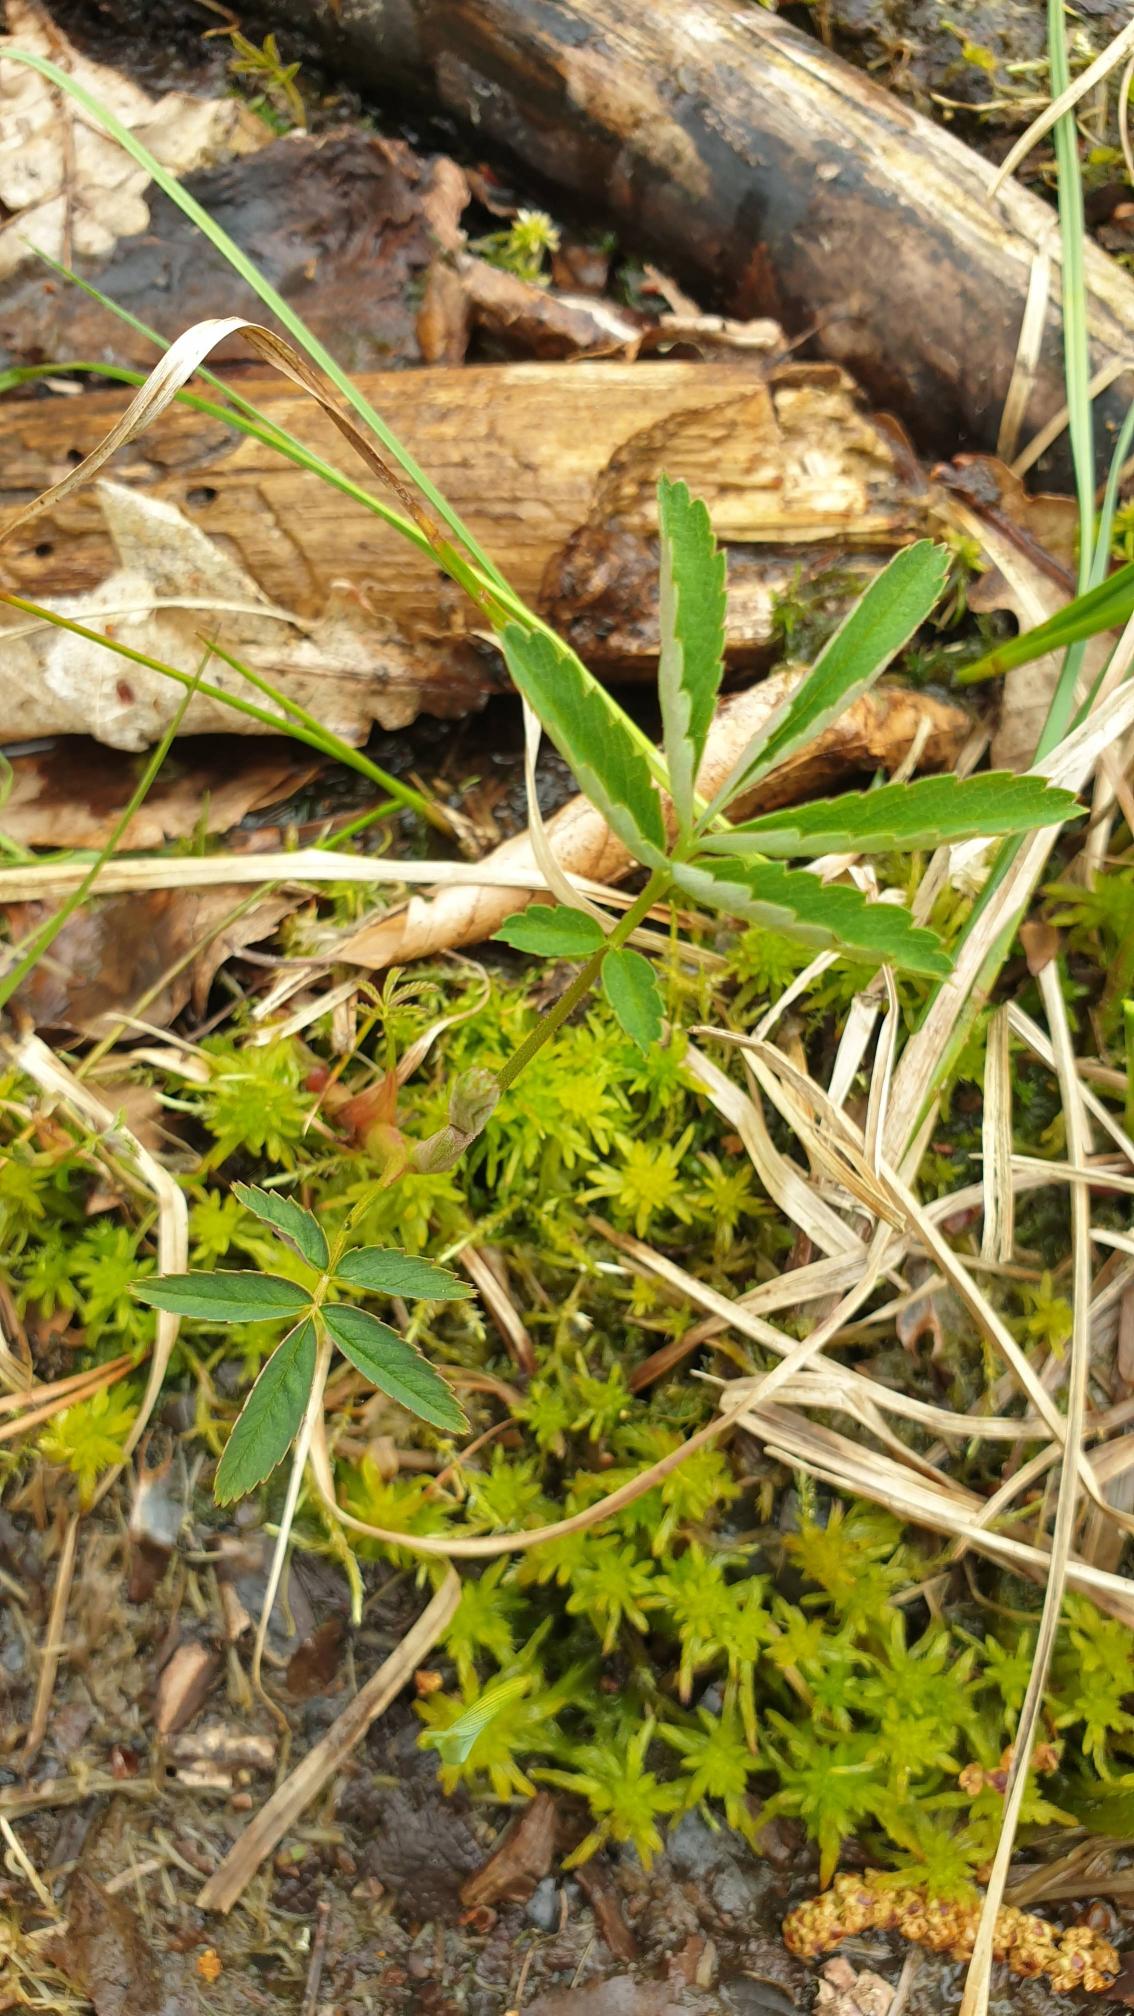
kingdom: Plantae
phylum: Tracheophyta
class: Magnoliopsida
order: Rosales
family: Rosaceae
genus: Comarum
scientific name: Comarum palustre
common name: Kragefod
